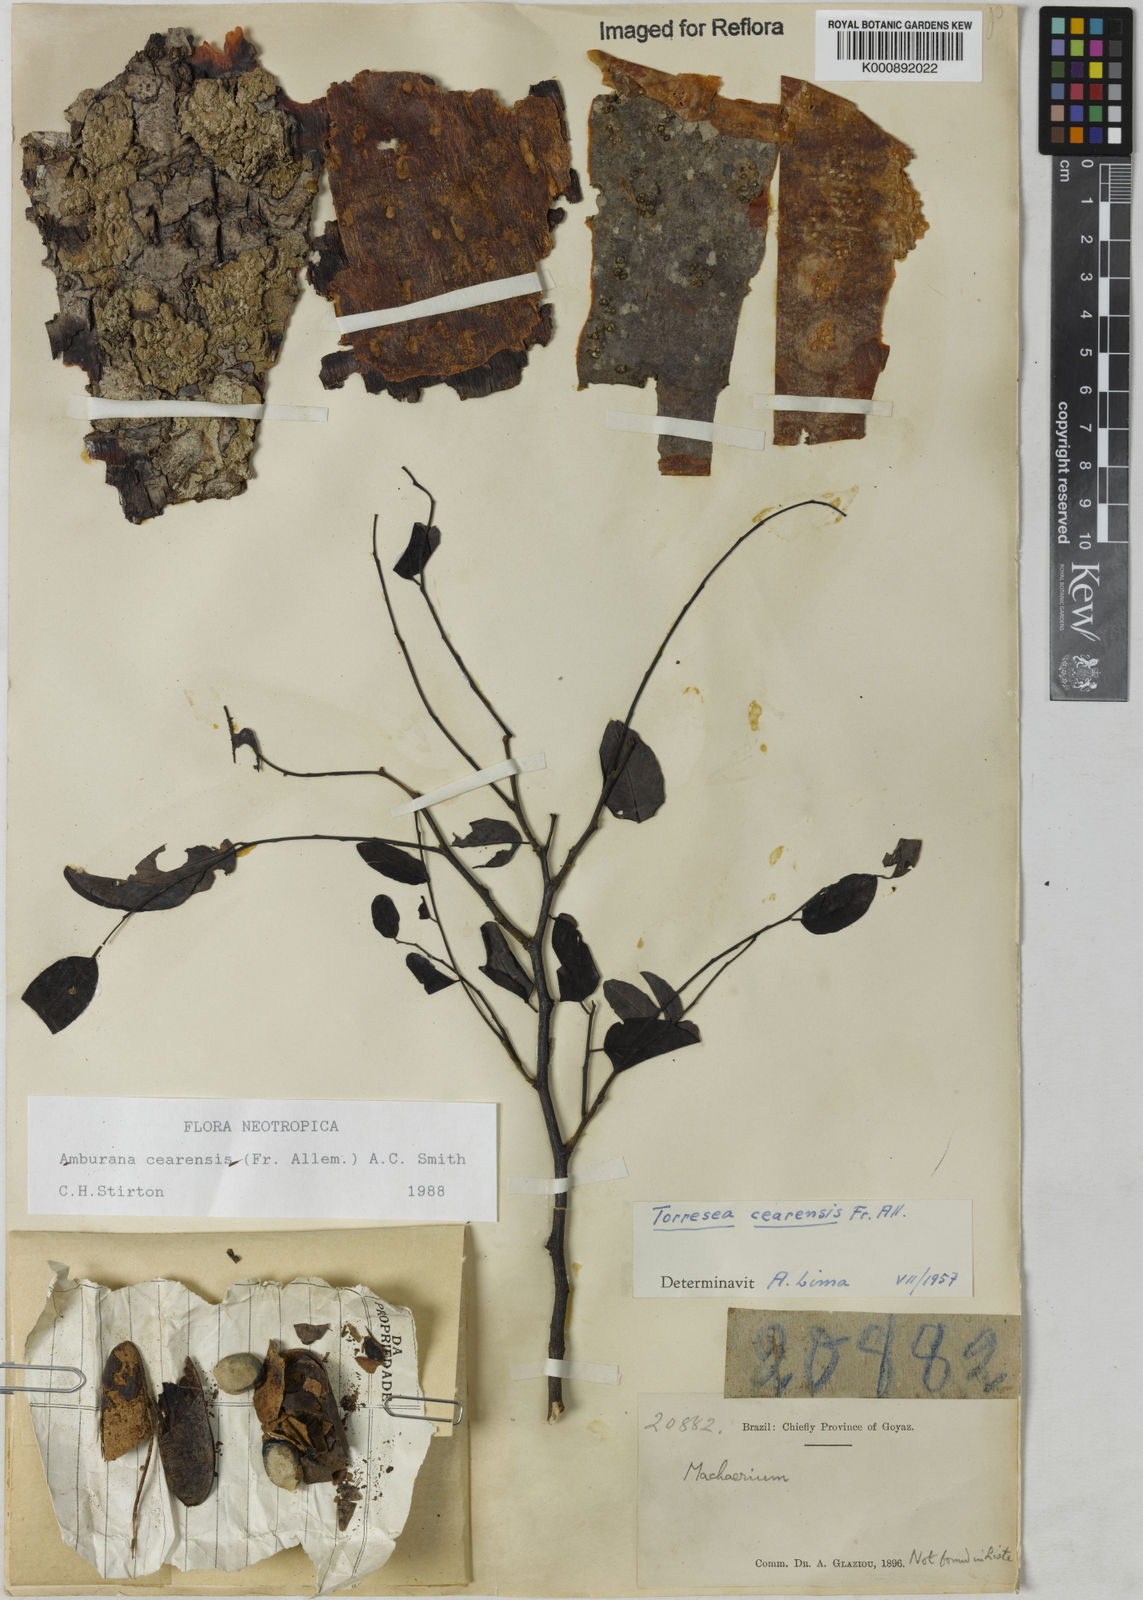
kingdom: Plantae
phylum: Tracheophyta
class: Magnoliopsida
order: Fabales
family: Fabaceae
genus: Amburana
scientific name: Amburana
